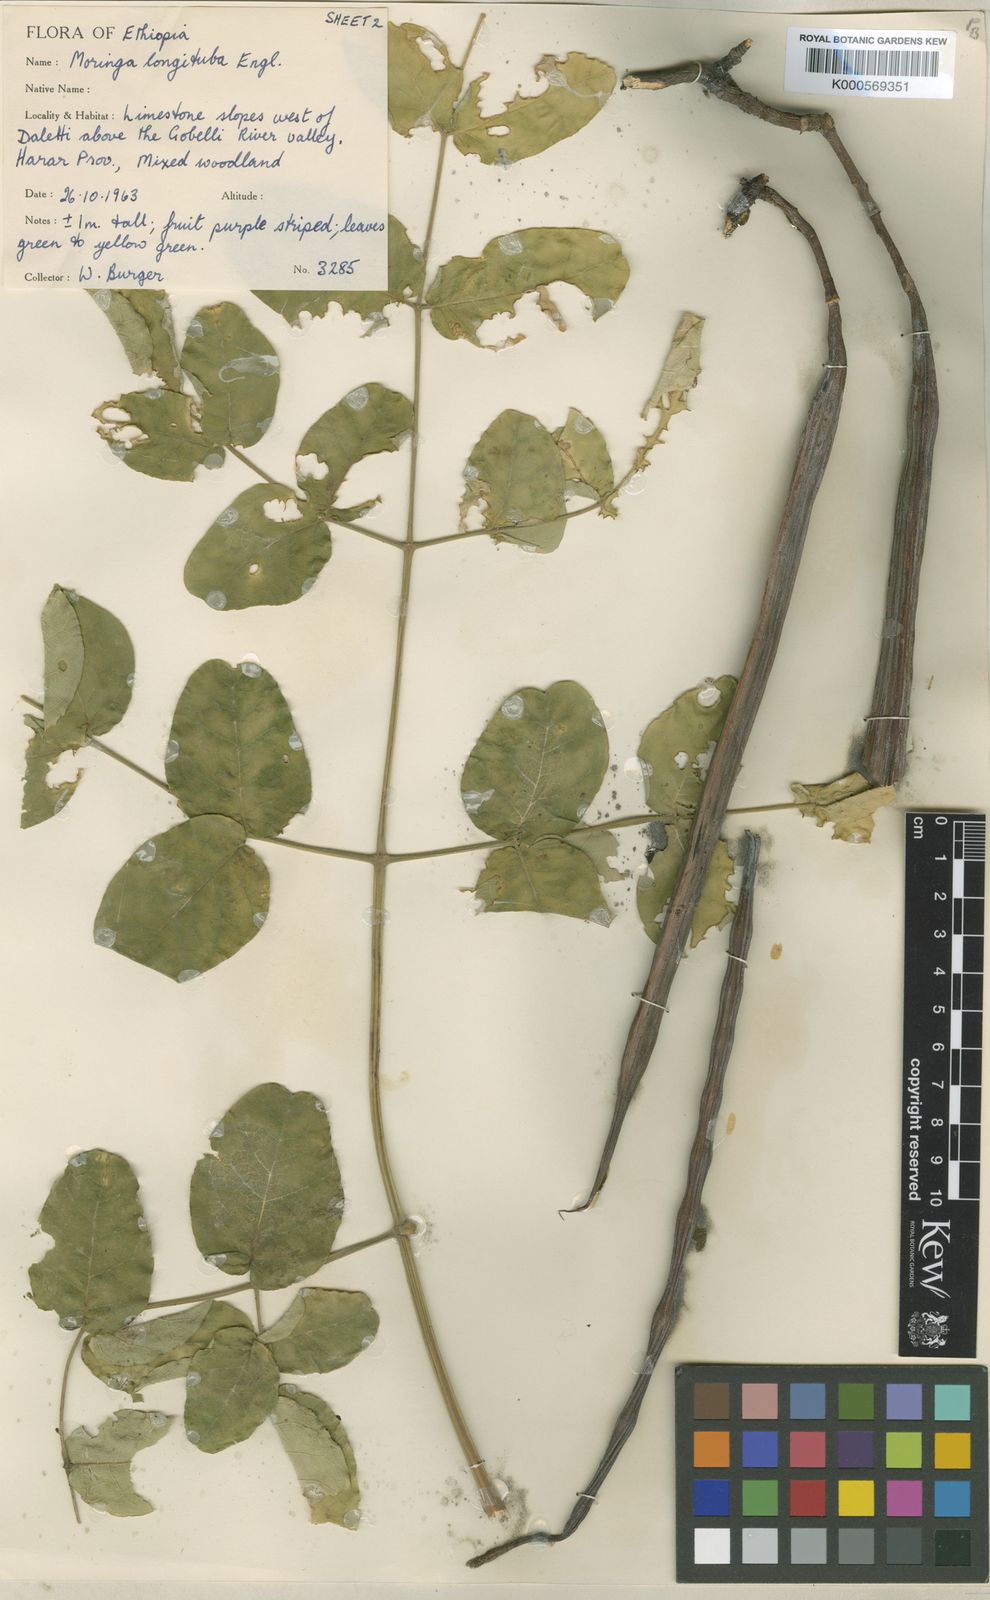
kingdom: Plantae
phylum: Tracheophyta
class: Magnoliopsida
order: Brassicales
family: Moringaceae
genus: Moringa
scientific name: Moringa longituba
